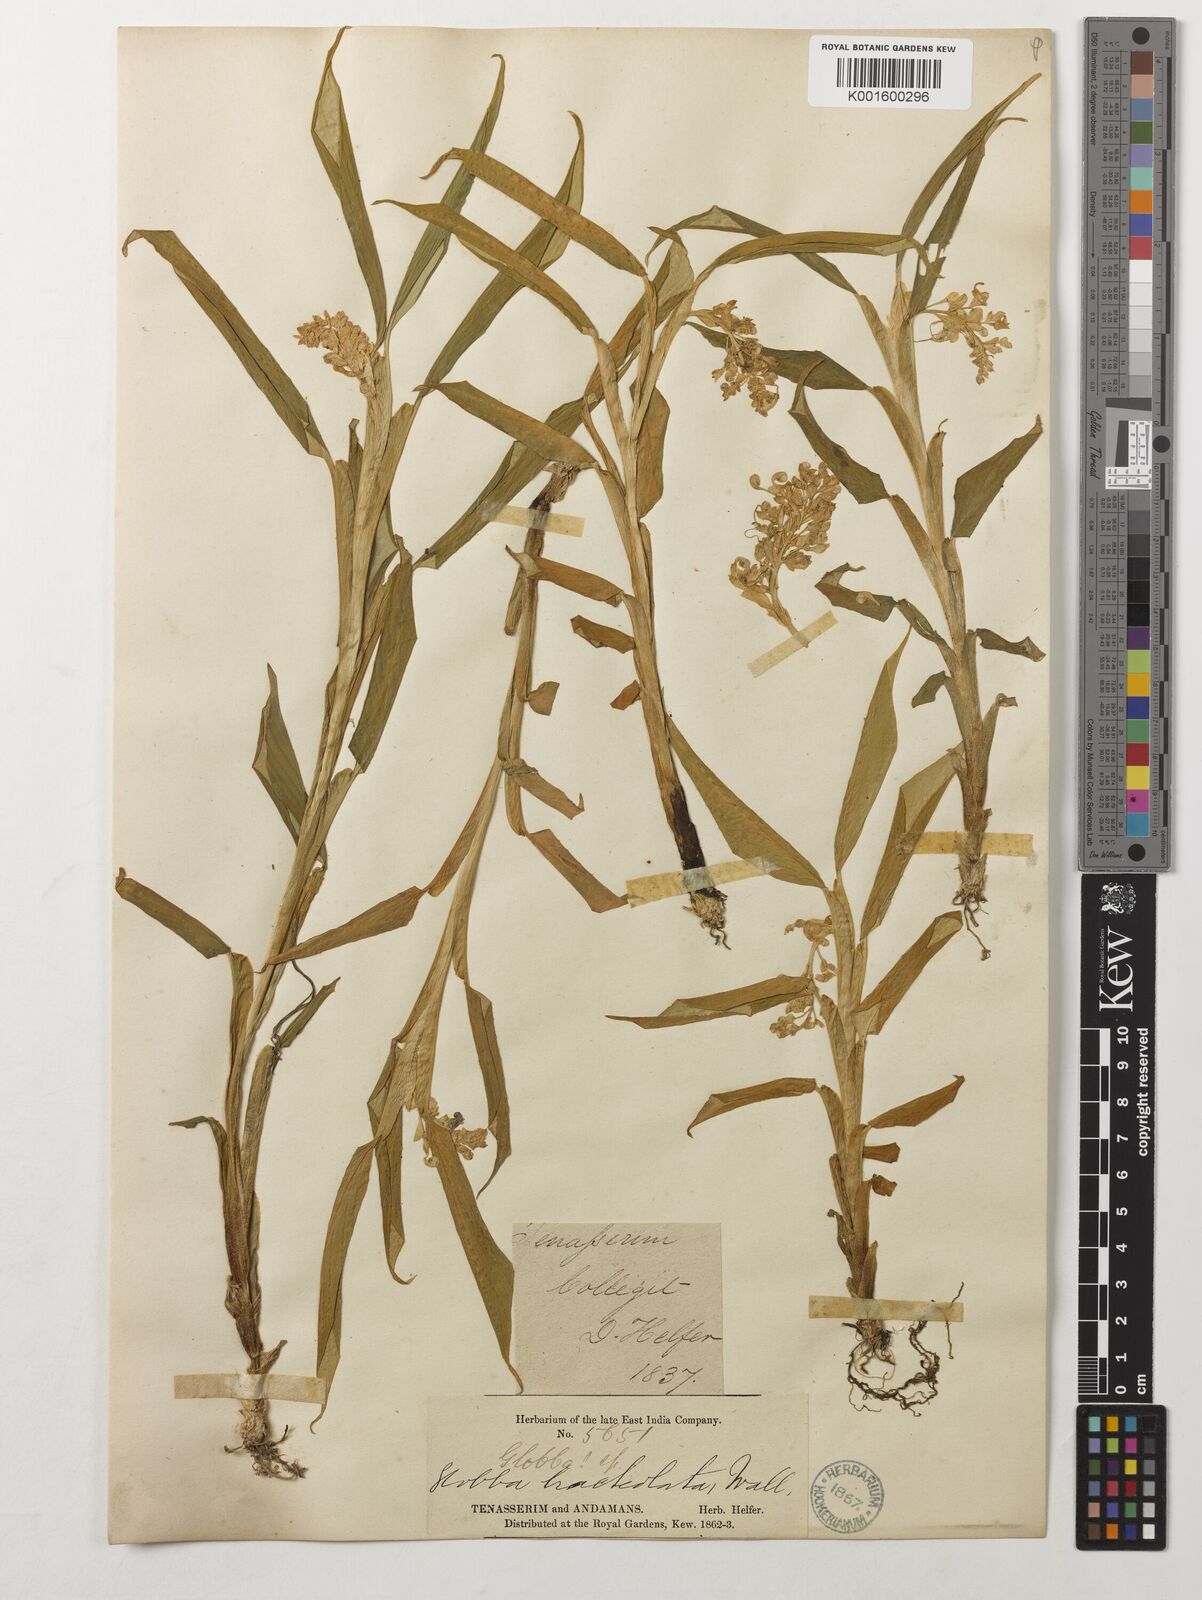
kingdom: Plantae
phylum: Tracheophyta
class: Liliopsida
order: Zingiberales
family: Zingiberaceae
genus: Globba
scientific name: Globba
